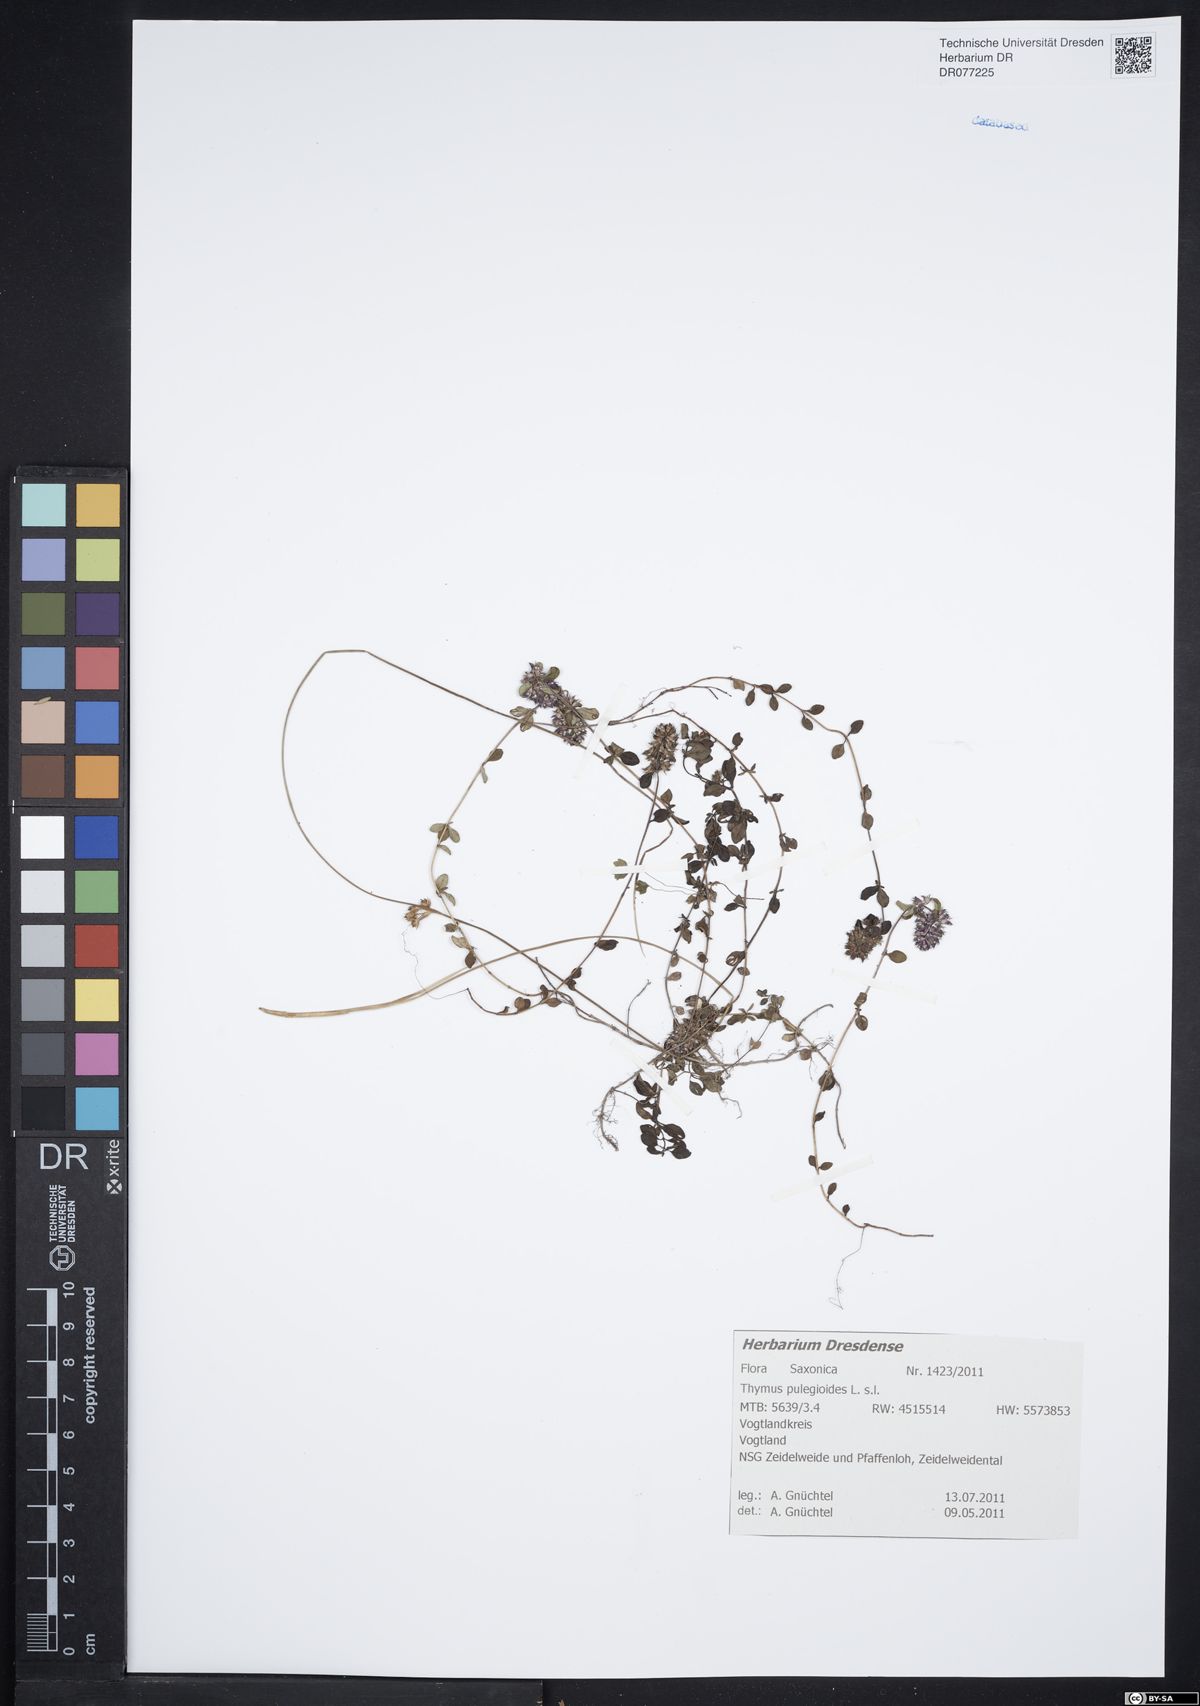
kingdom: Plantae
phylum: Tracheophyta
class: Magnoliopsida
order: Lamiales
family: Lamiaceae
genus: Thymus
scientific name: Thymus pulegioides
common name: Large thyme
